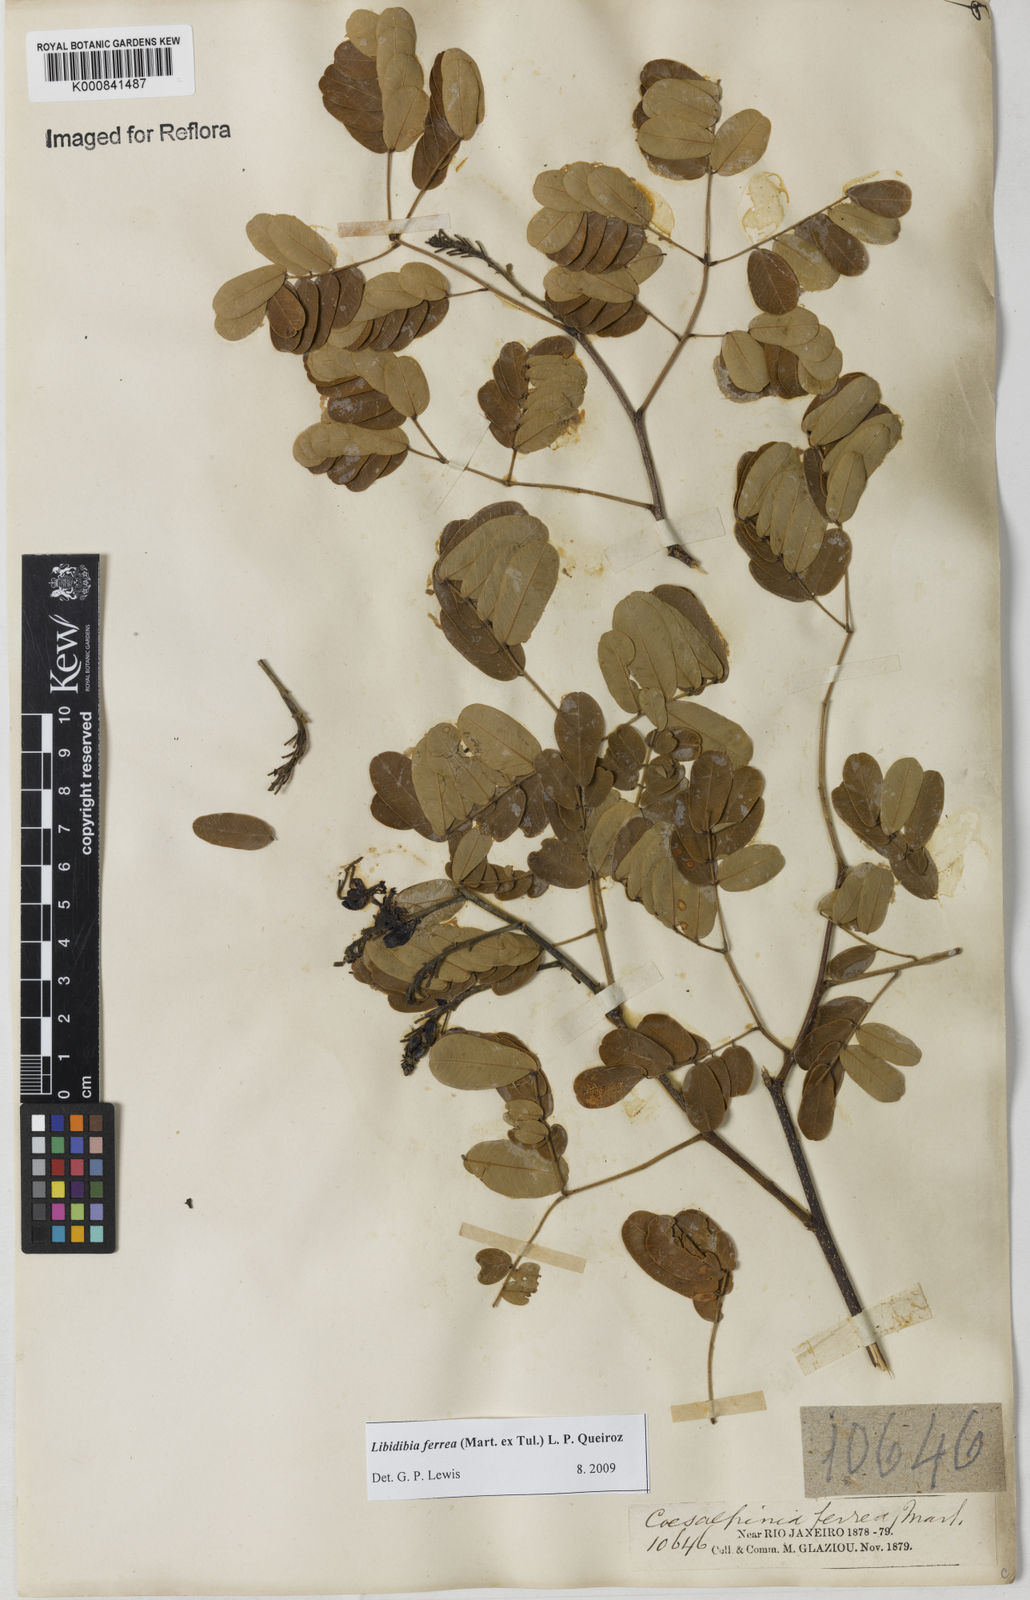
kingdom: Plantae
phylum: Tracheophyta
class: Magnoliopsida
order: Fabales
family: Fabaceae
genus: Libidibia
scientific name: Libidibia ferrea
